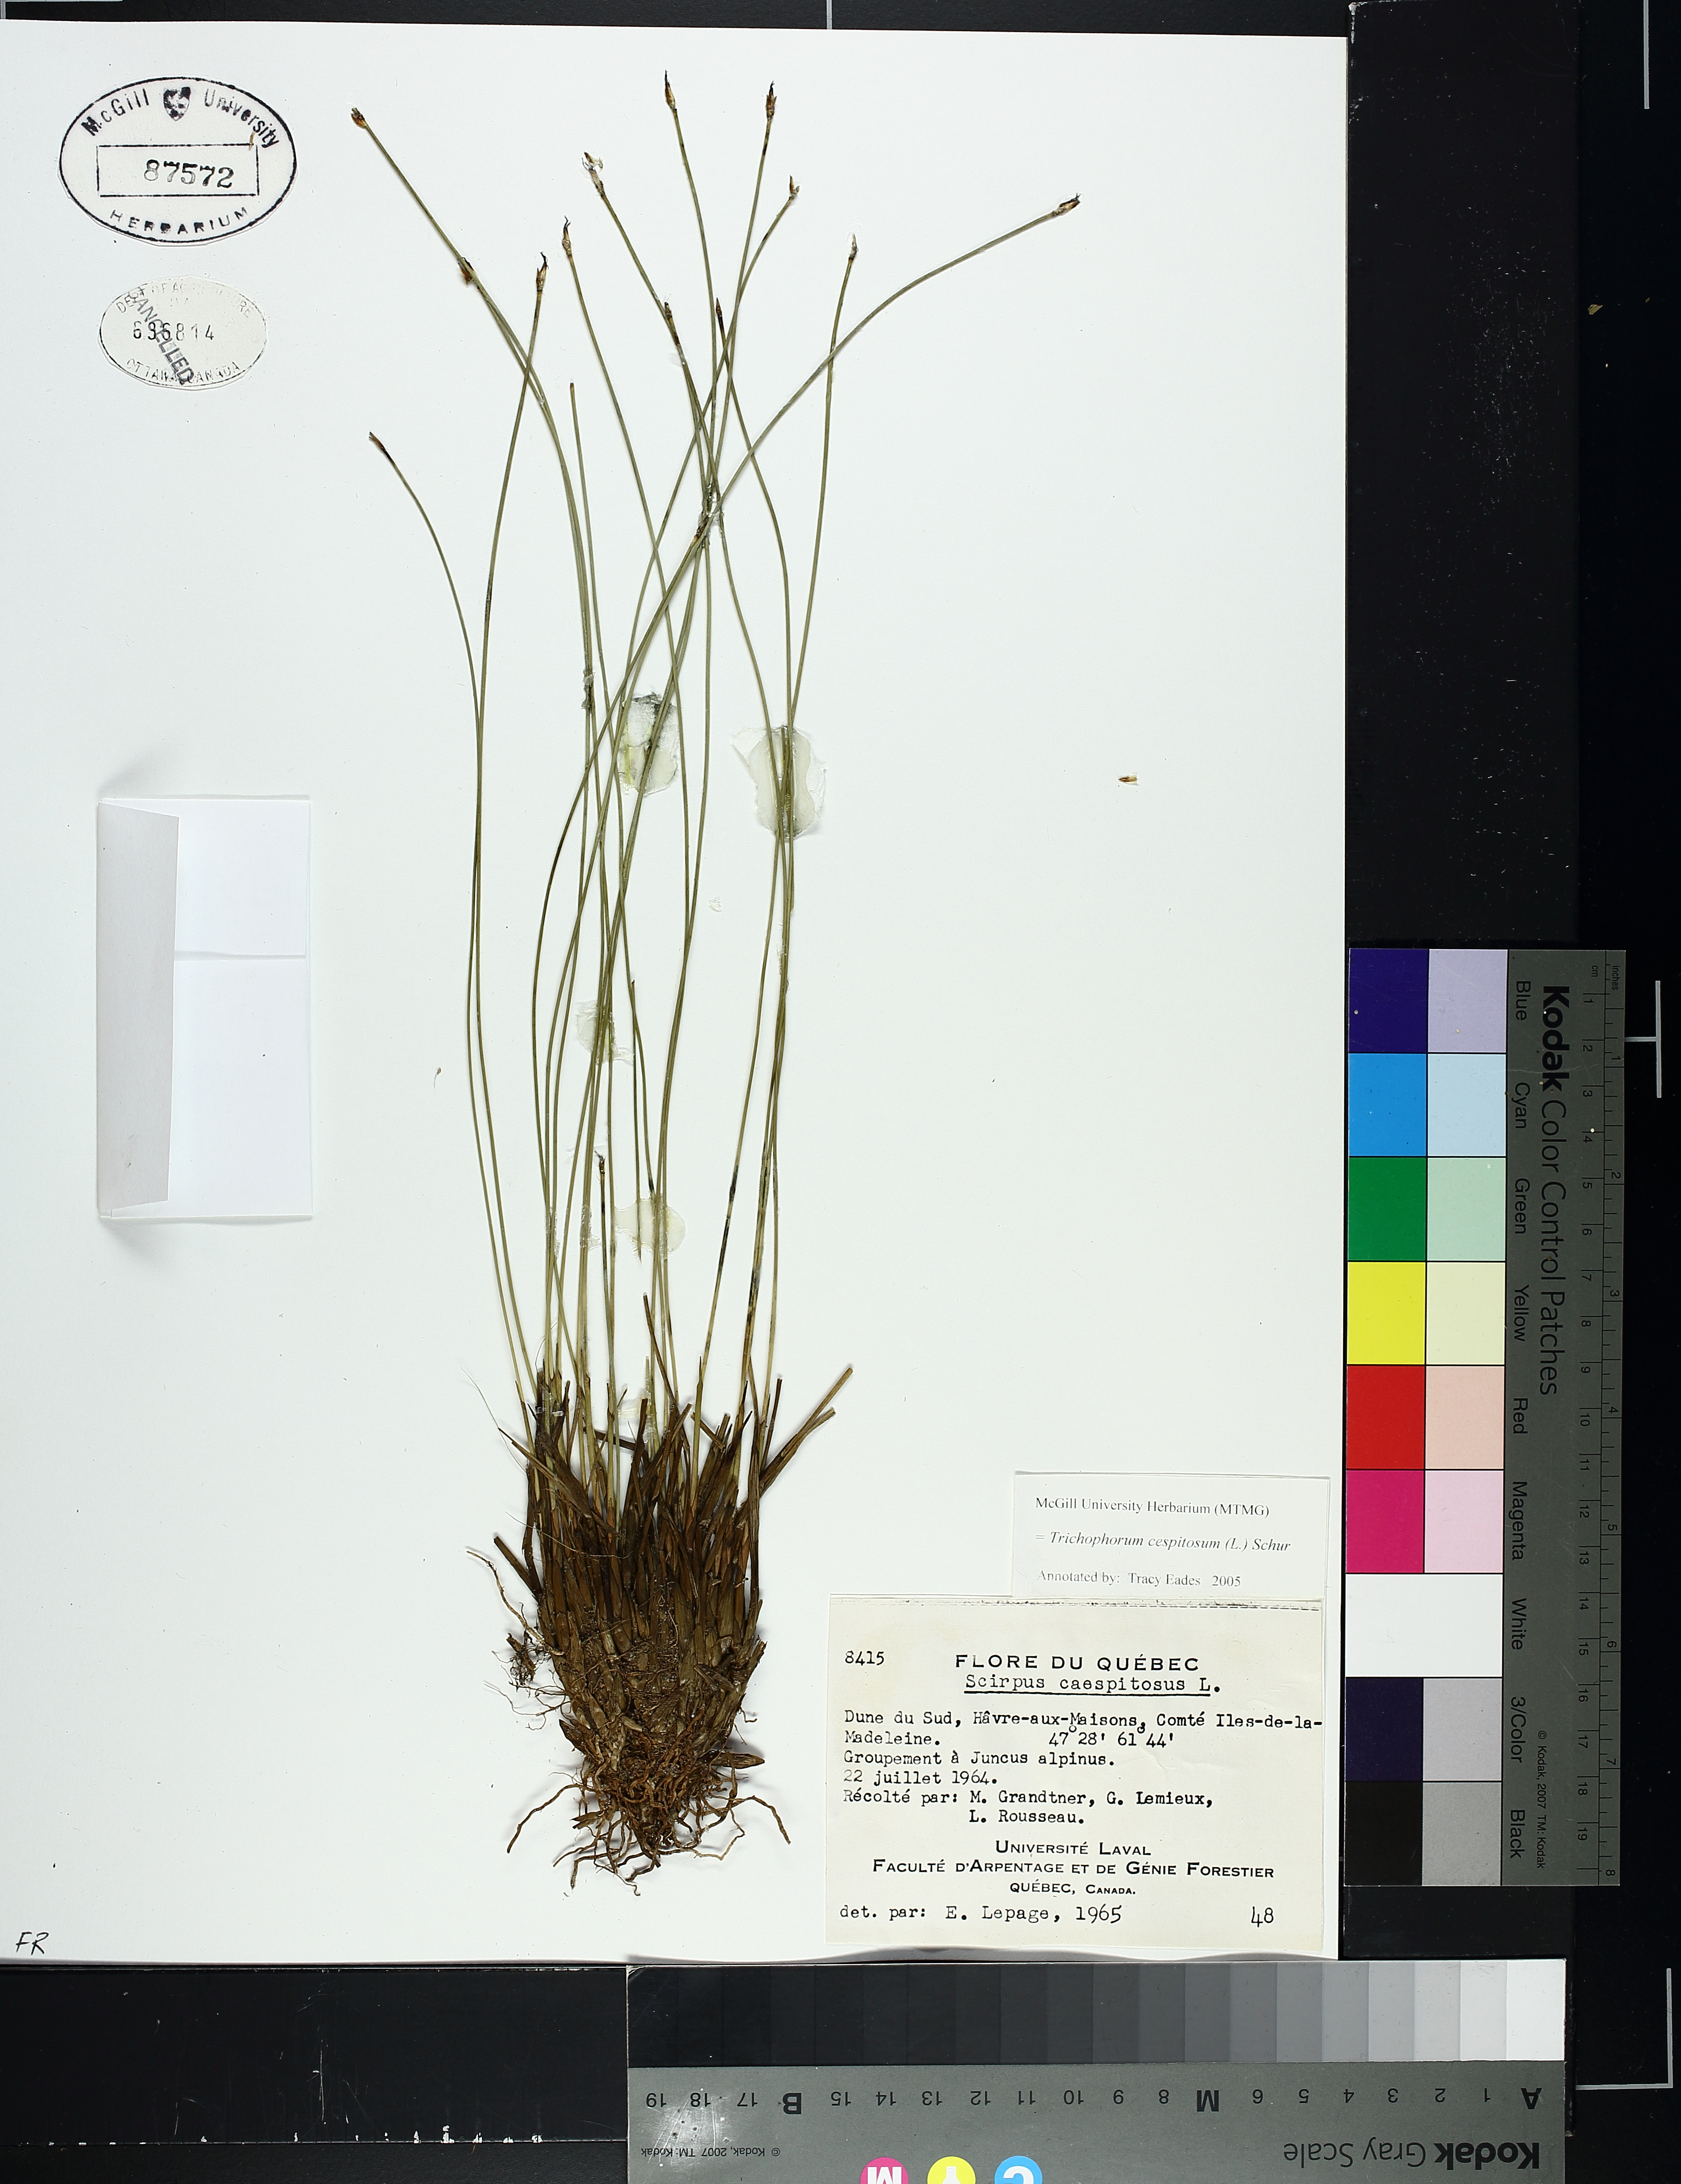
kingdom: Plantae
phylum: Tracheophyta
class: Liliopsida
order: Poales
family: Cyperaceae
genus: Trichophorum
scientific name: Trichophorum cespitosum
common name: Cespitose bulrush
